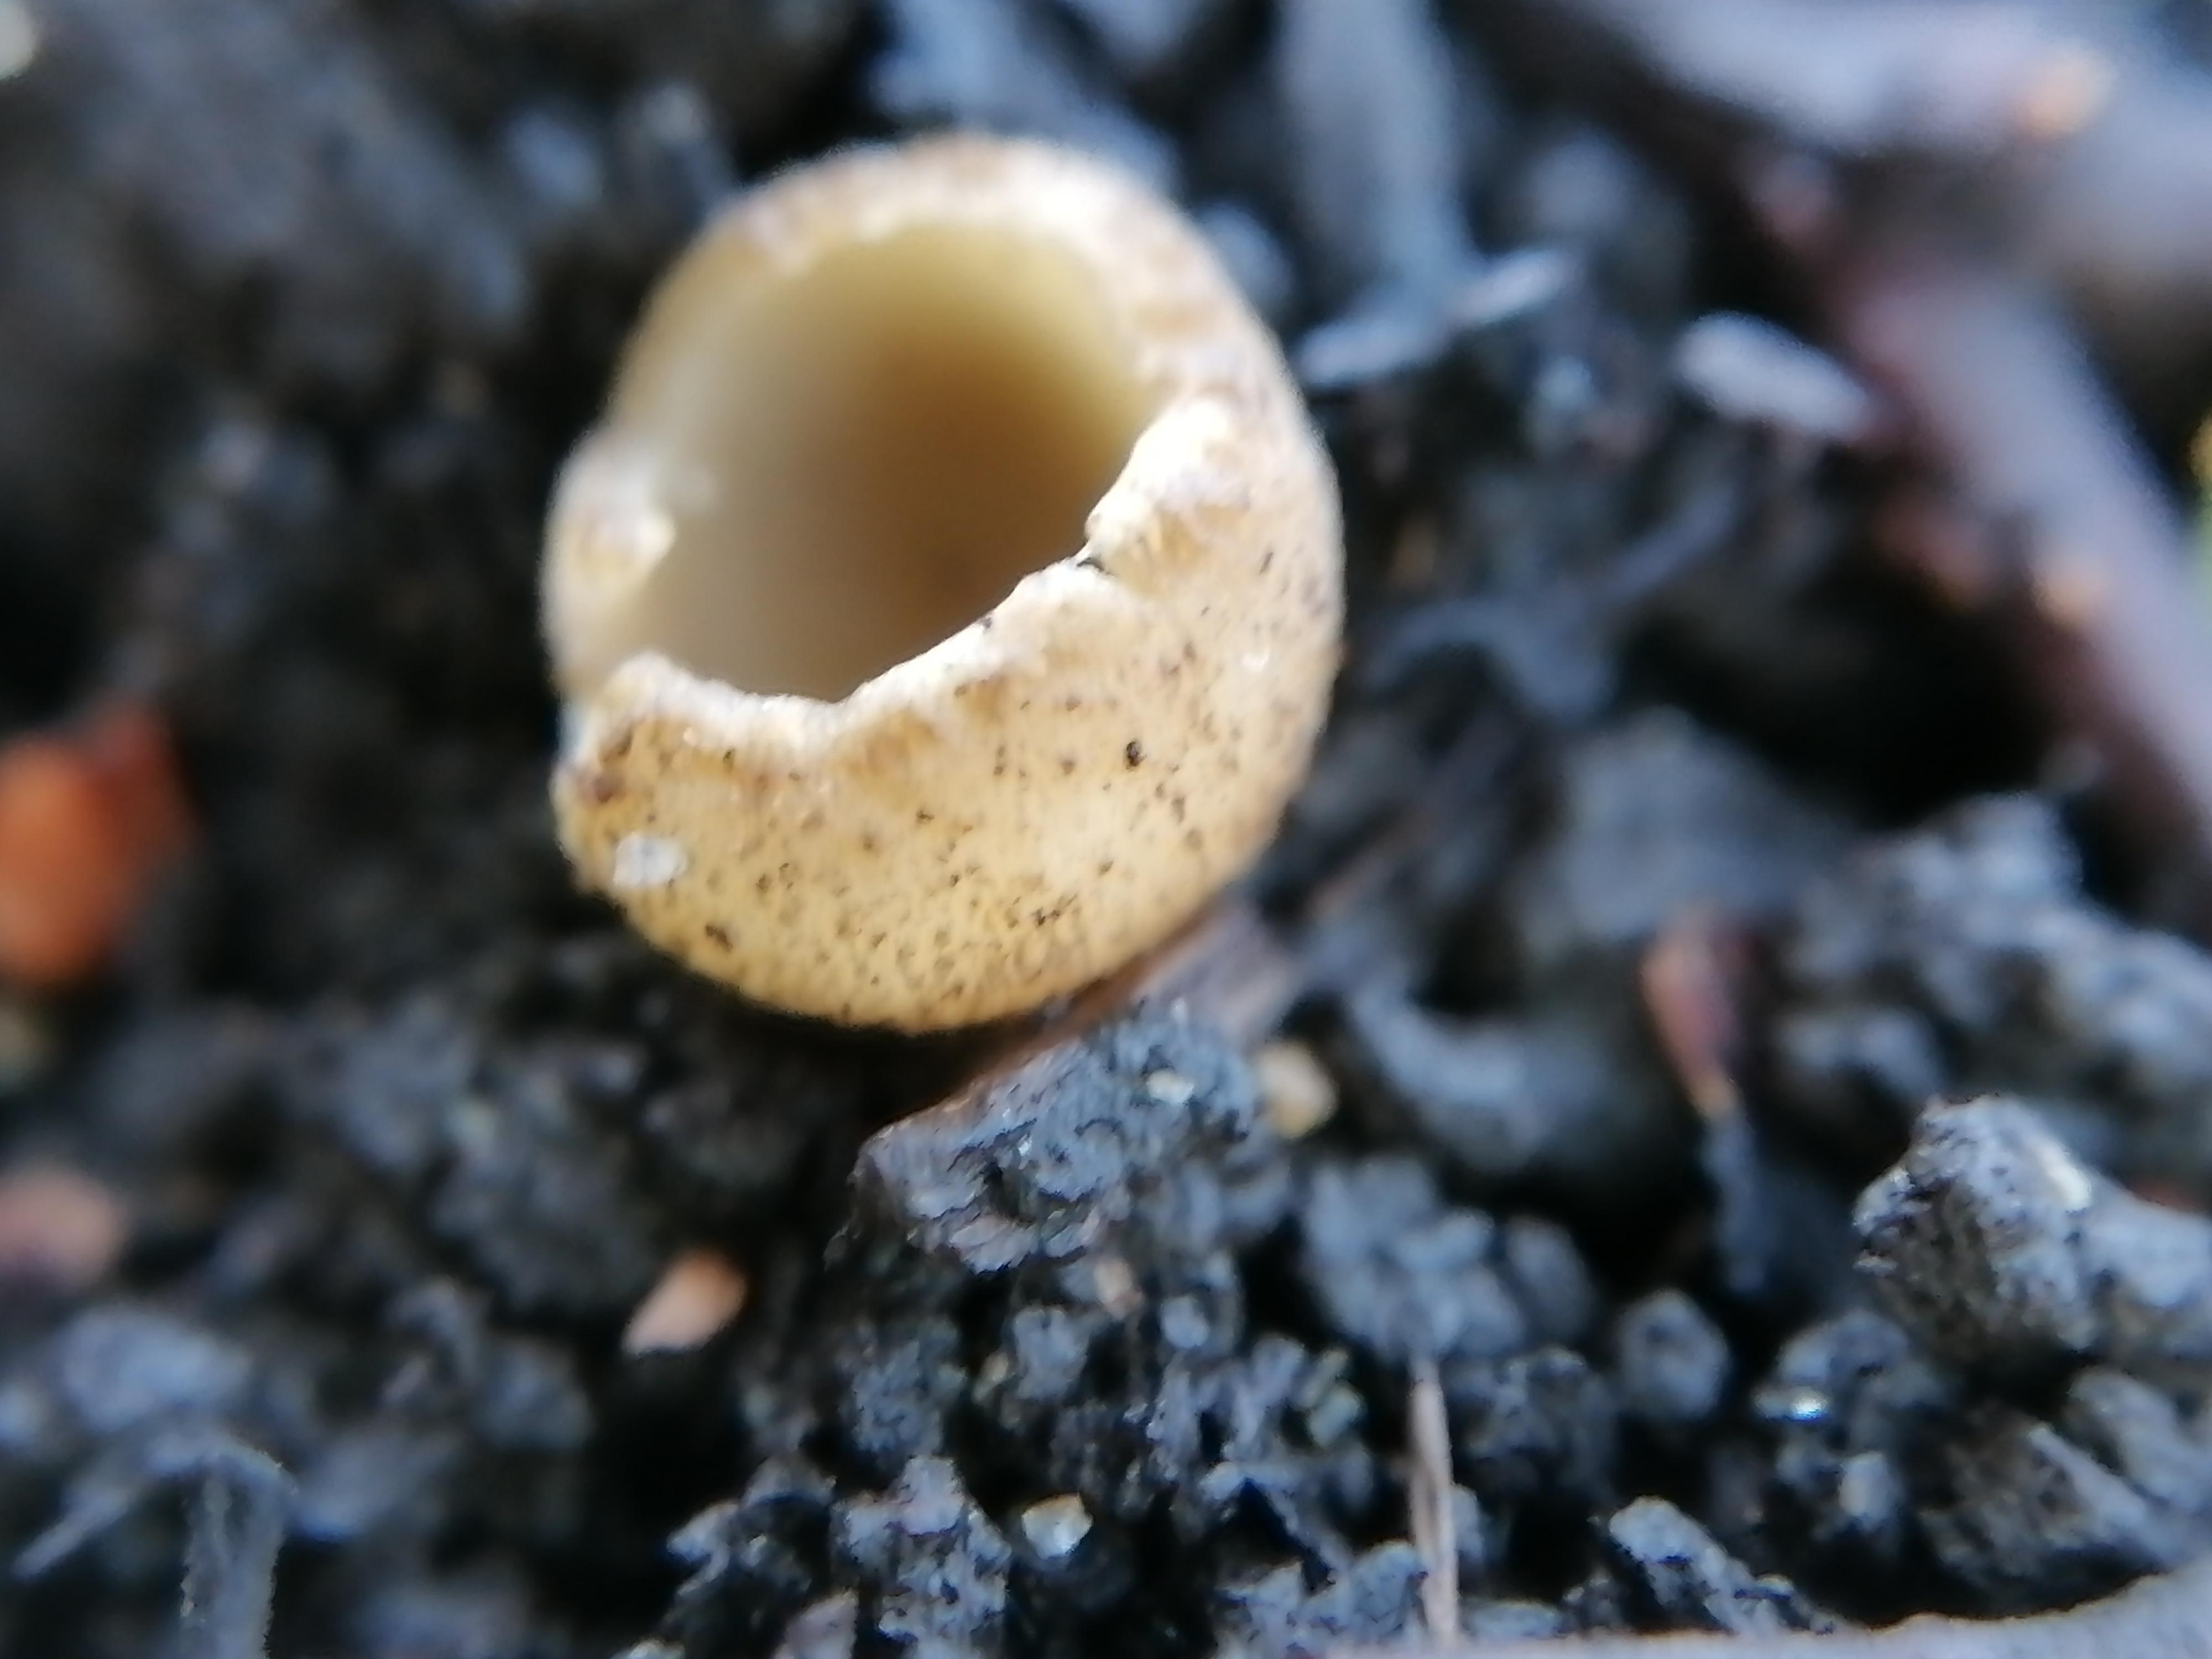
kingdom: Fungi
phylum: Ascomycota
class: Pezizomycetes
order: Pezizales
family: Pyronemataceae
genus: Tarzetta
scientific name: Tarzetta cupularis
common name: gulbrun pokalbæger
